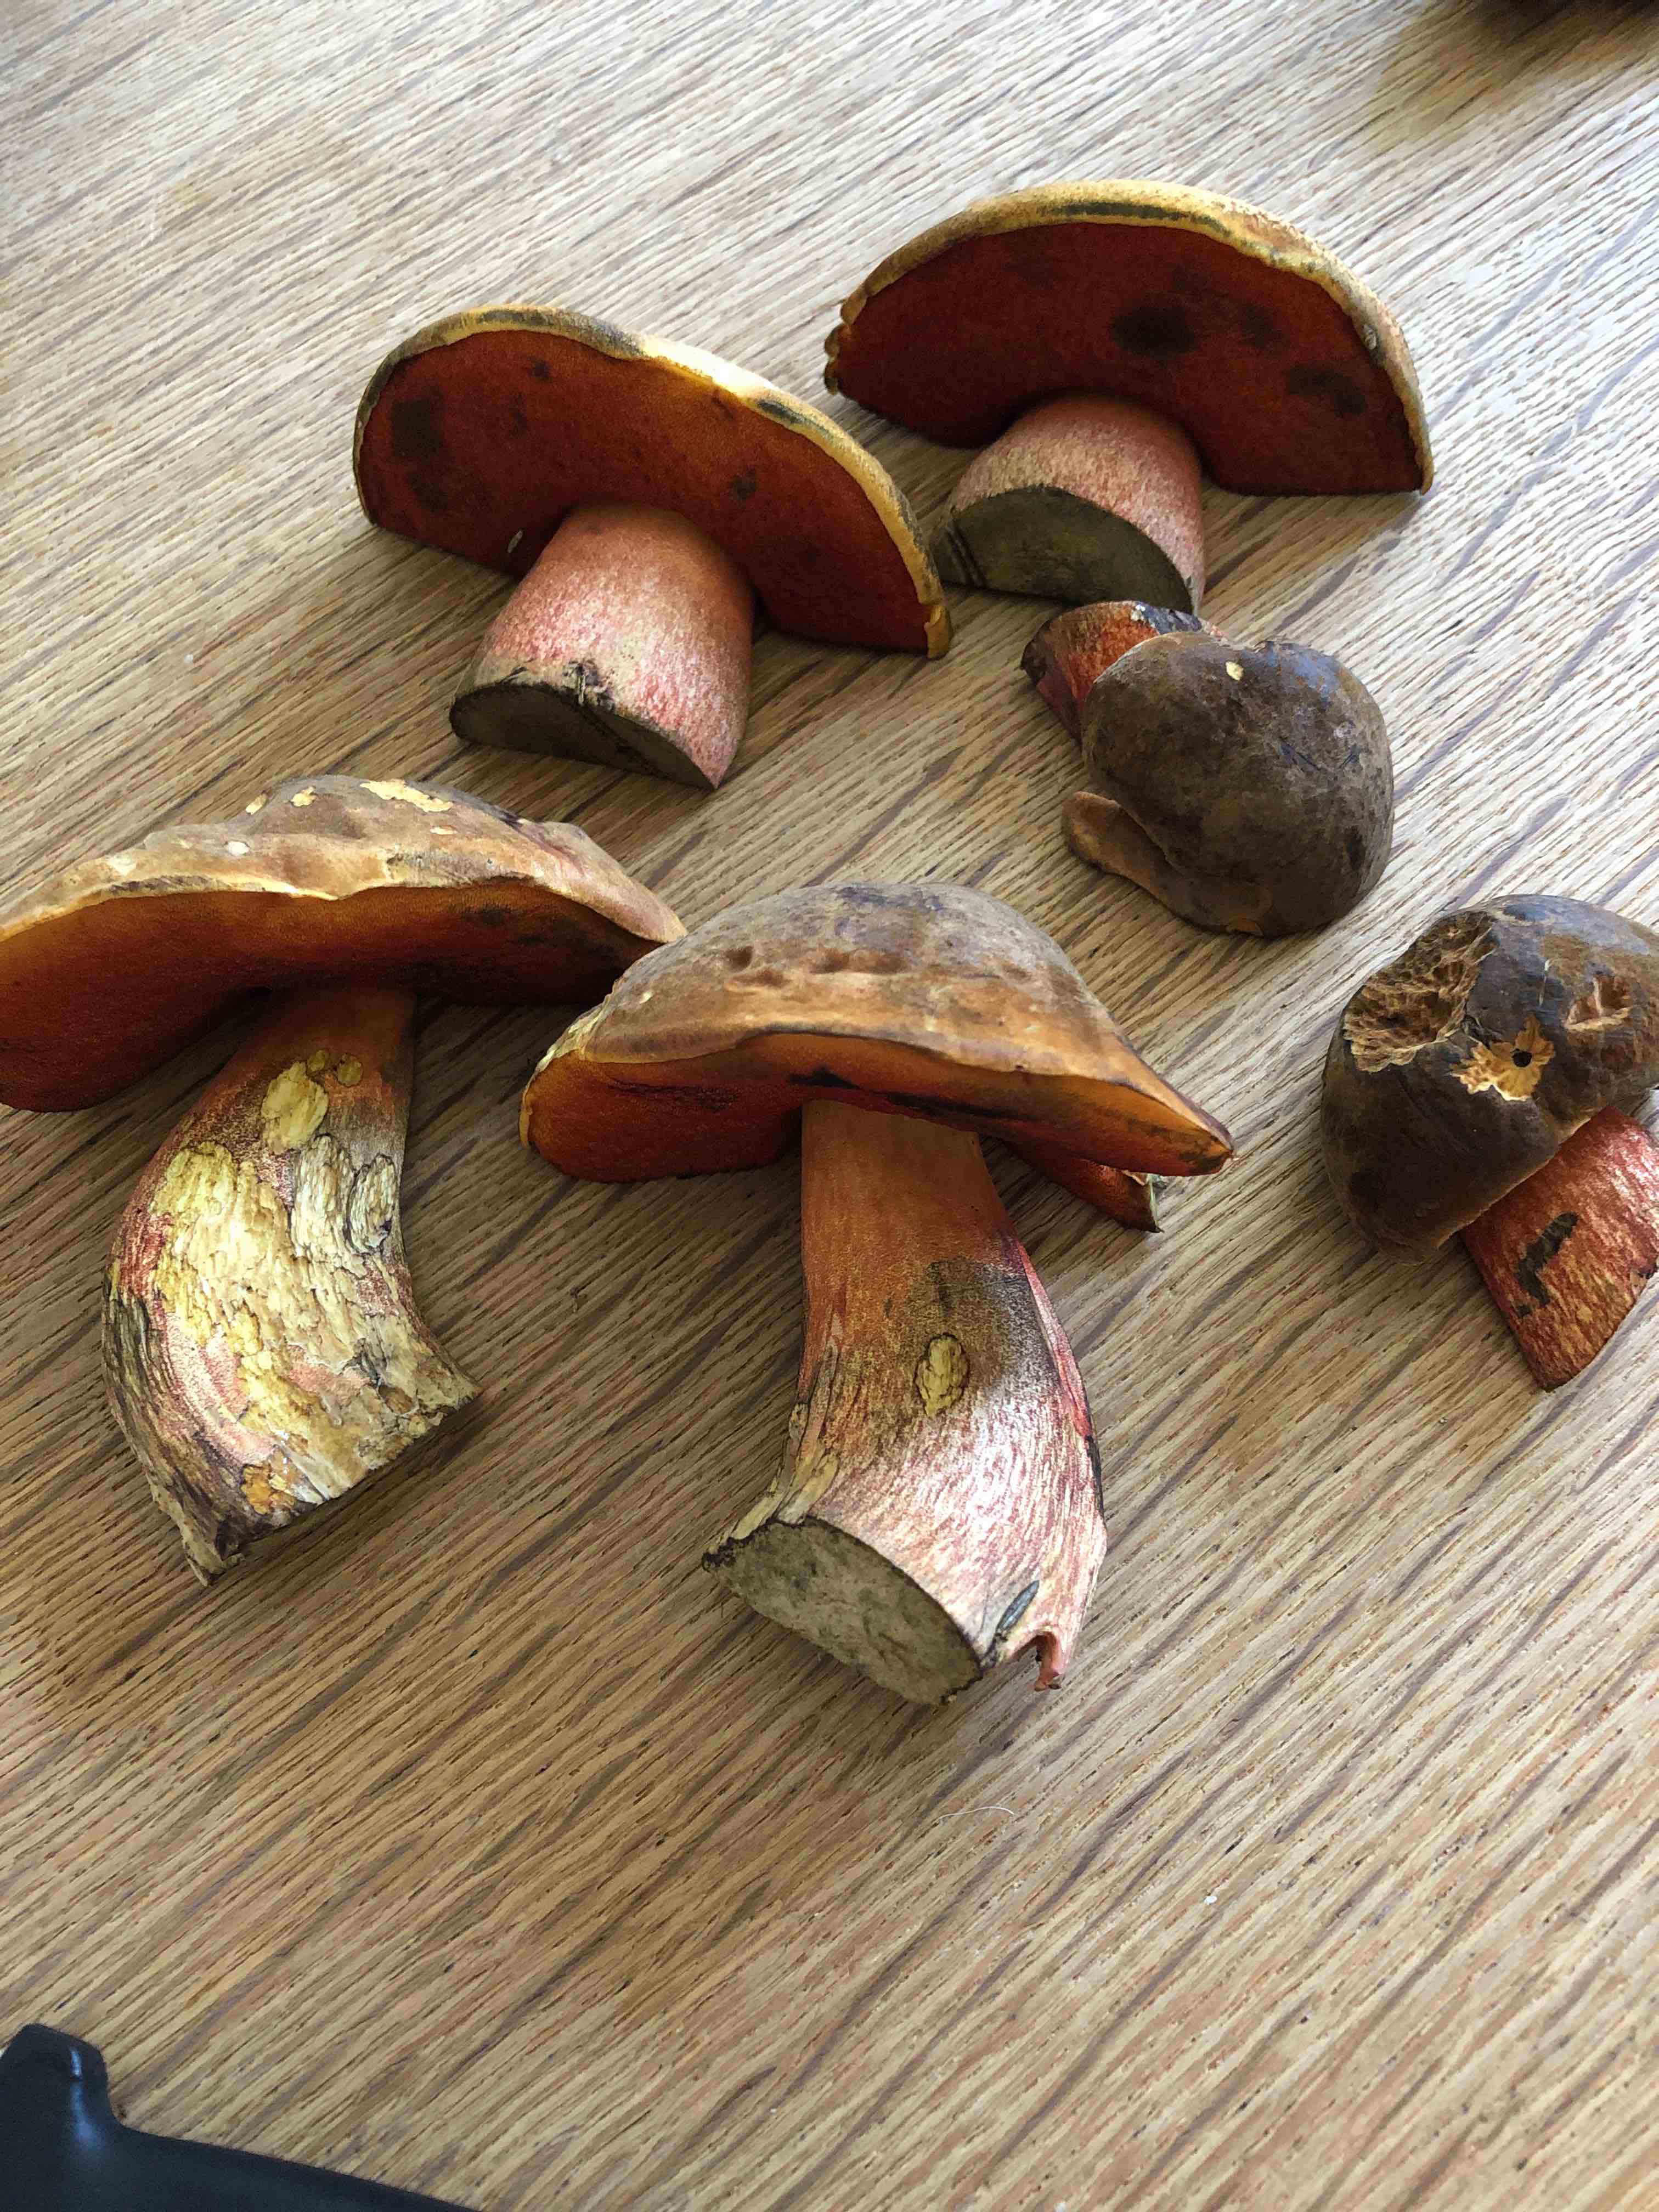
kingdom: Fungi
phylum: Basidiomycota
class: Agaricomycetes
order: Boletales
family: Boletaceae
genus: Neoboletus
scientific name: Neoboletus erythropus
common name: punktstokket indigorørhat
